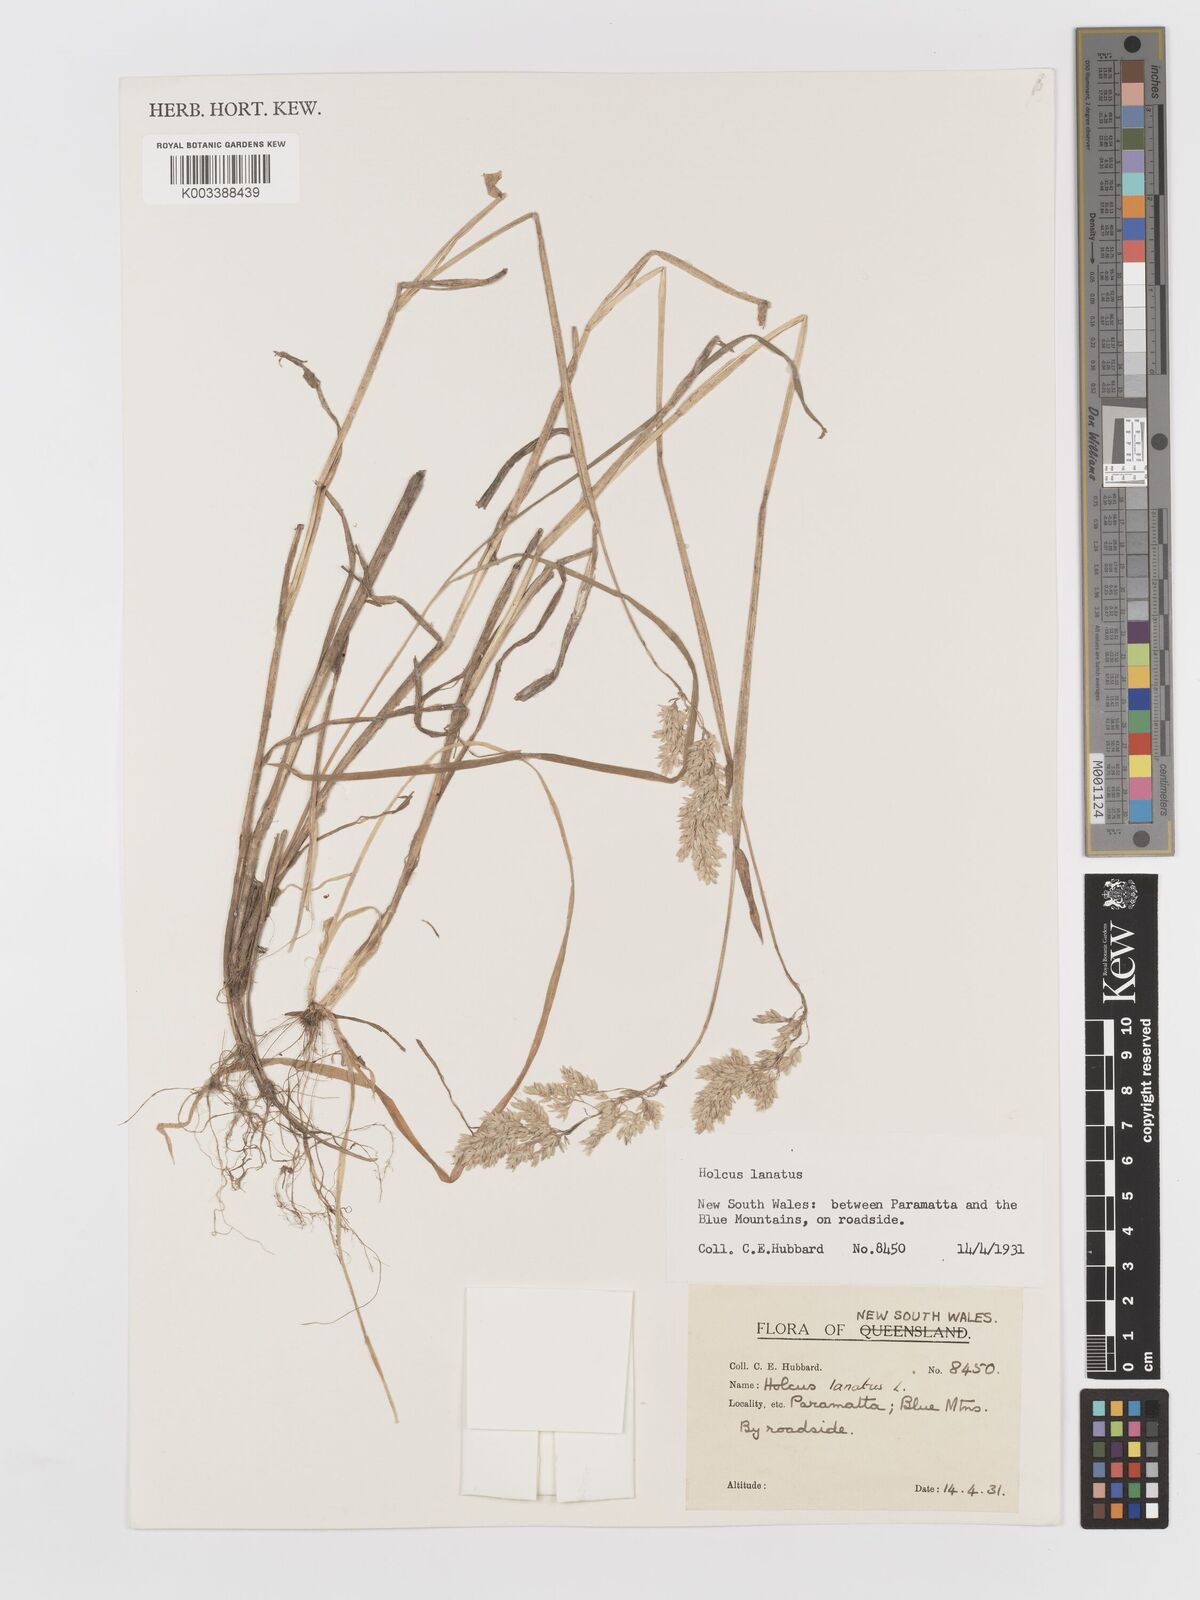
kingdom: Plantae
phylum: Tracheophyta
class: Liliopsida
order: Poales
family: Poaceae
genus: Holcus
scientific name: Holcus lanatus
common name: Yorkshire-fog
